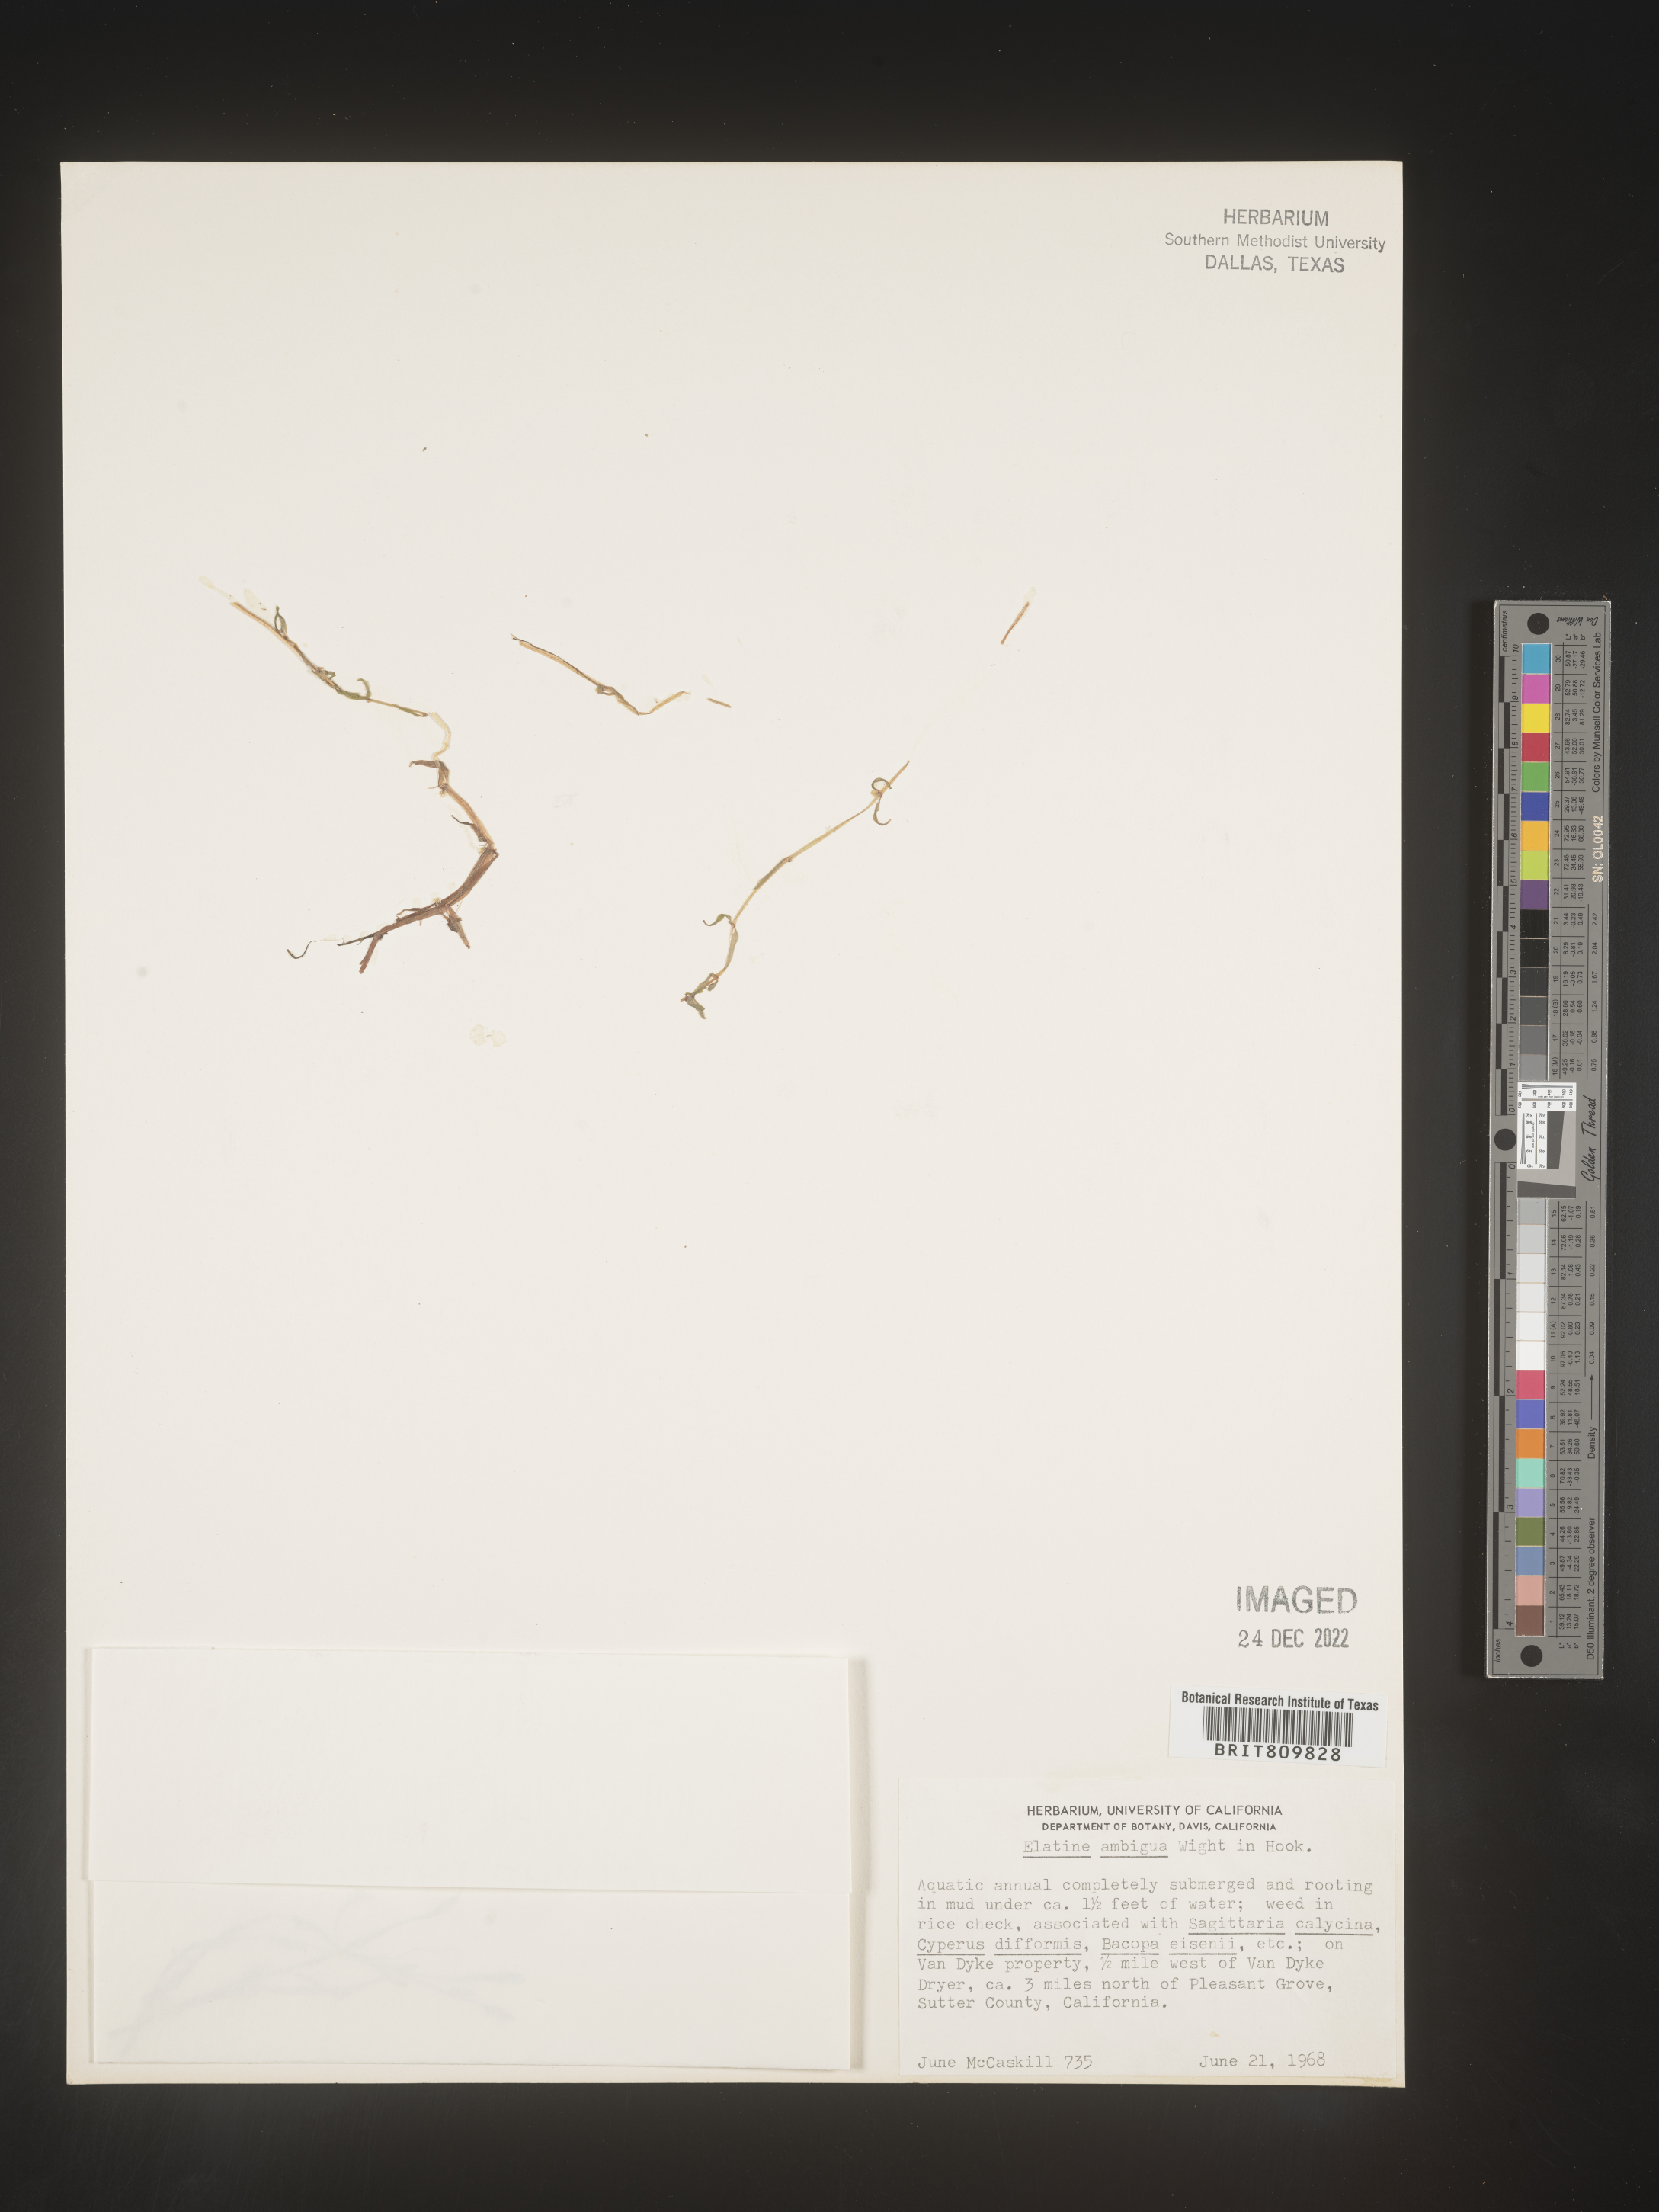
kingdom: Plantae
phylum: Tracheophyta
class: Magnoliopsida
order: Malpighiales
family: Elatinaceae
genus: Elatine
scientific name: Elatine
